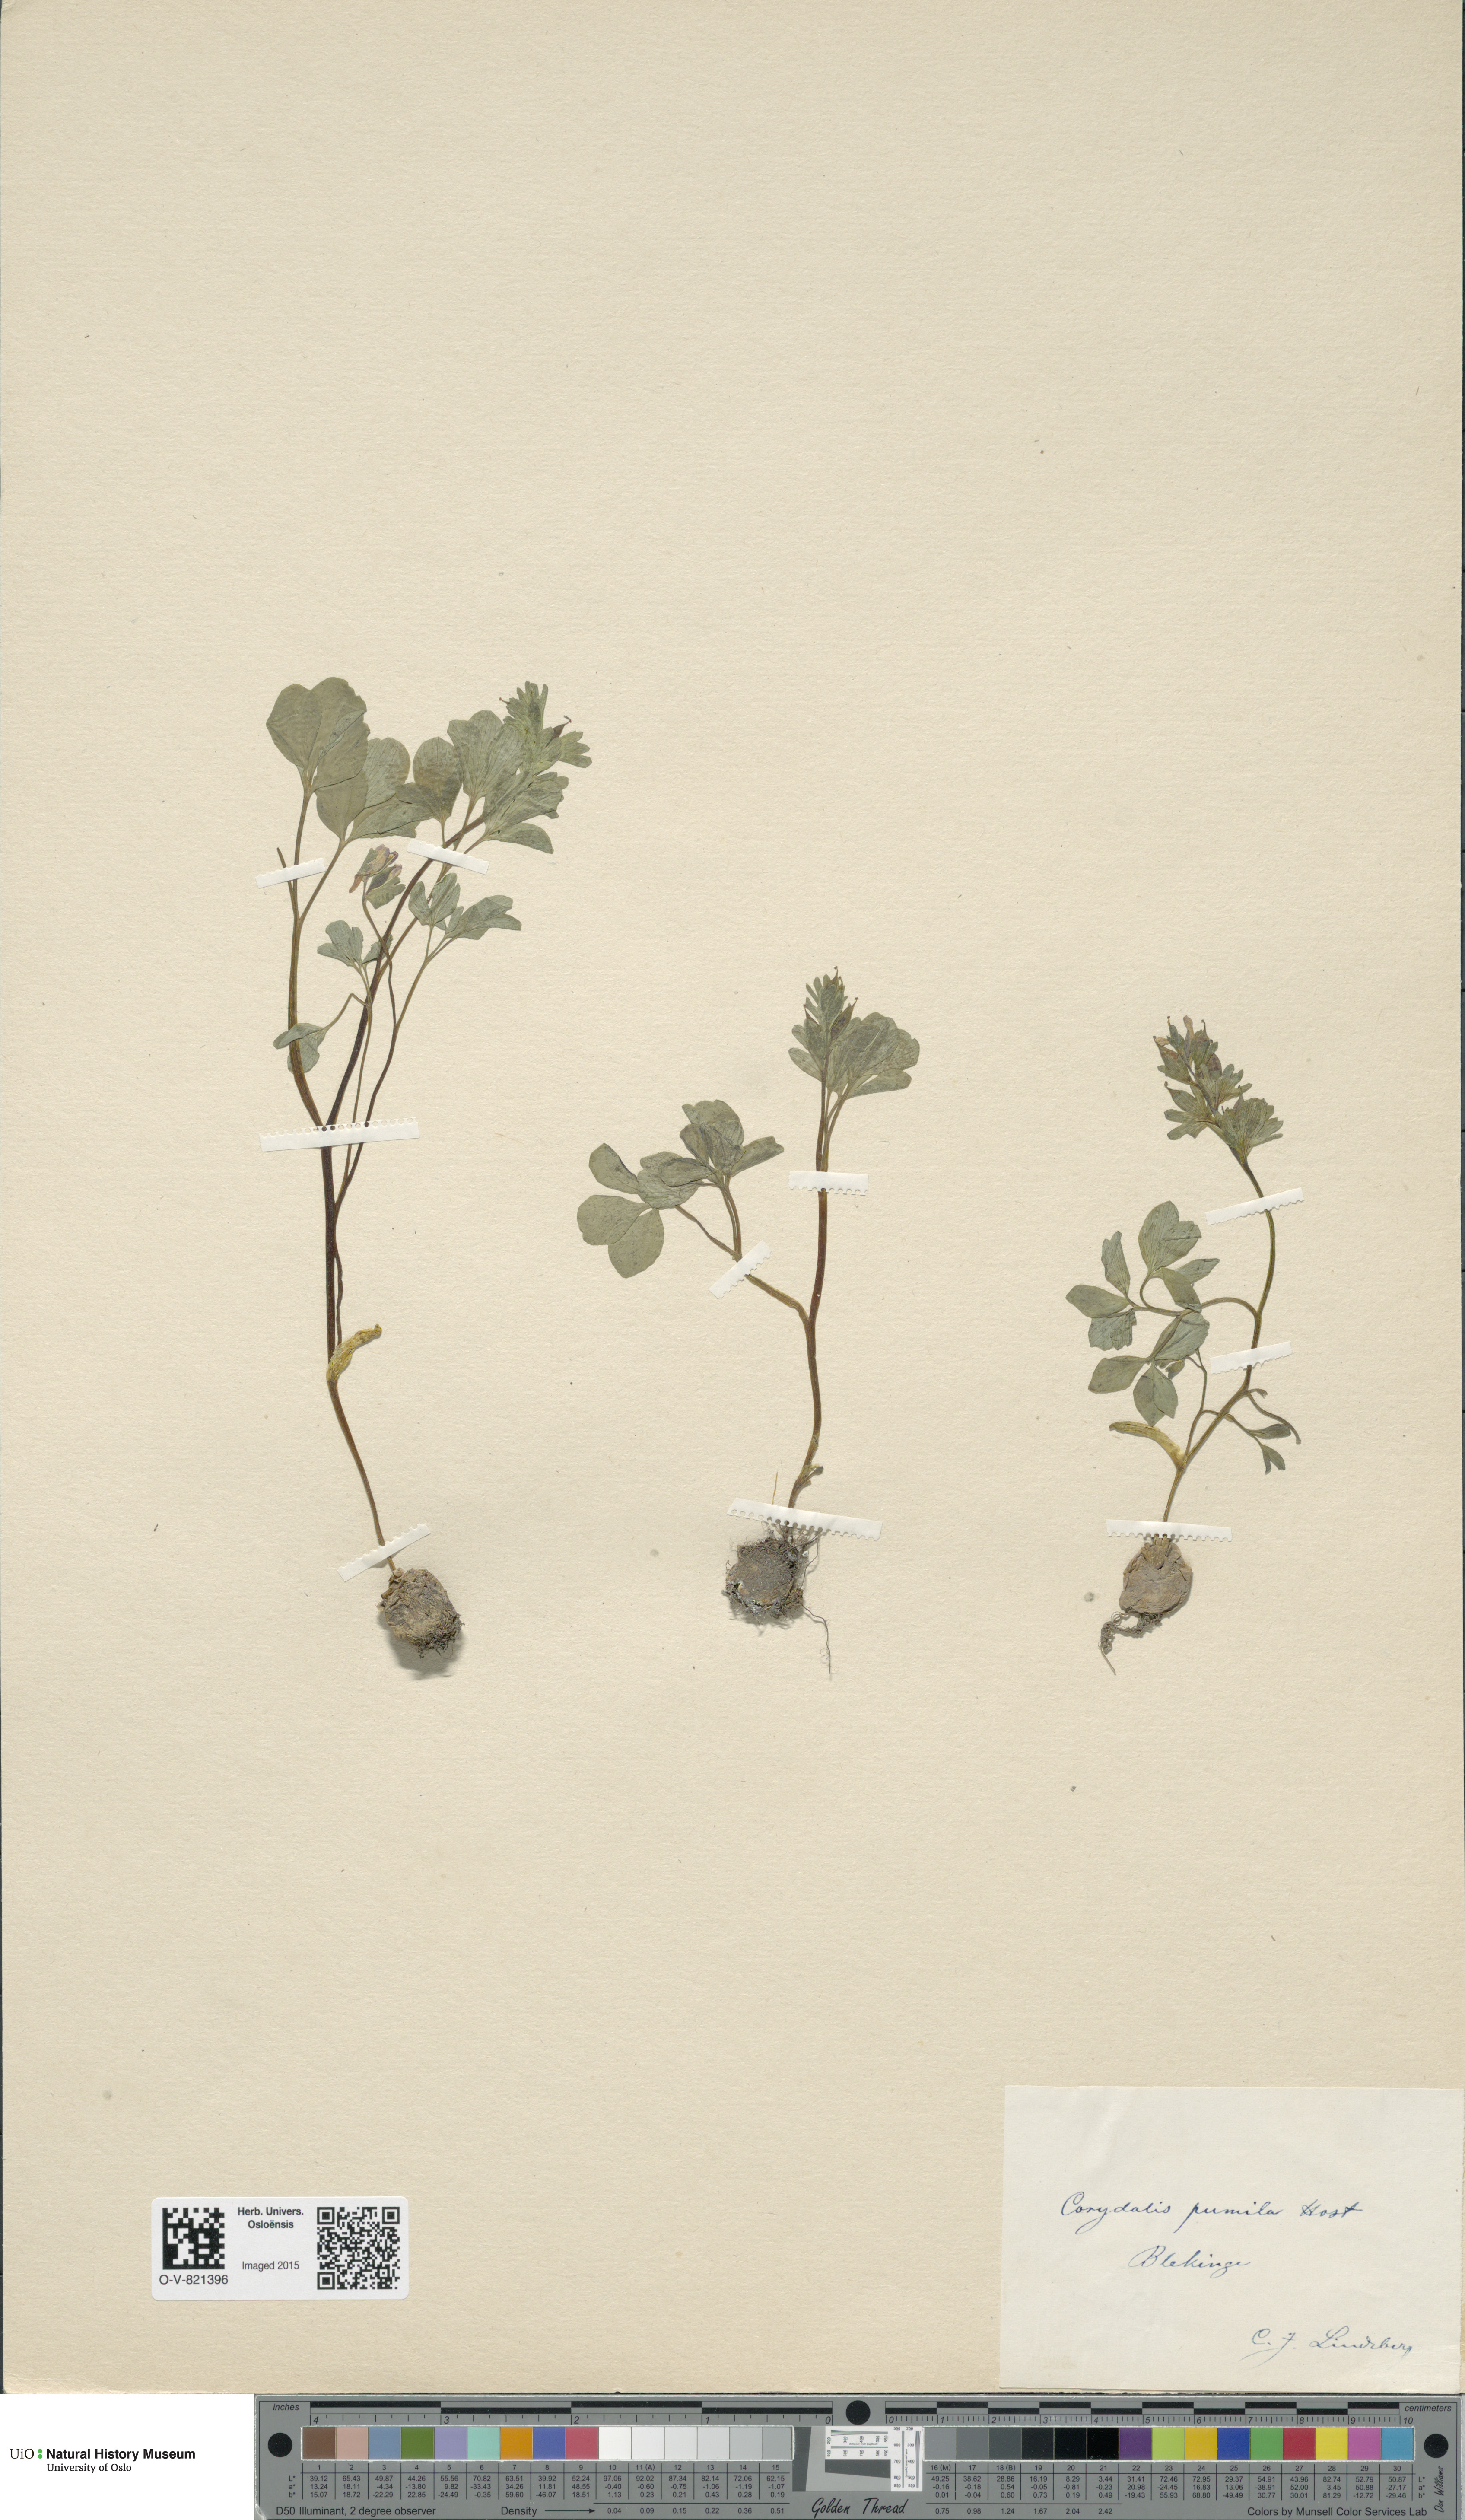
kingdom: Plantae
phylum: Tracheophyta
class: Magnoliopsida
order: Ranunculales
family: Papaveraceae
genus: Corydalis
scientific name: Corydalis pumila
